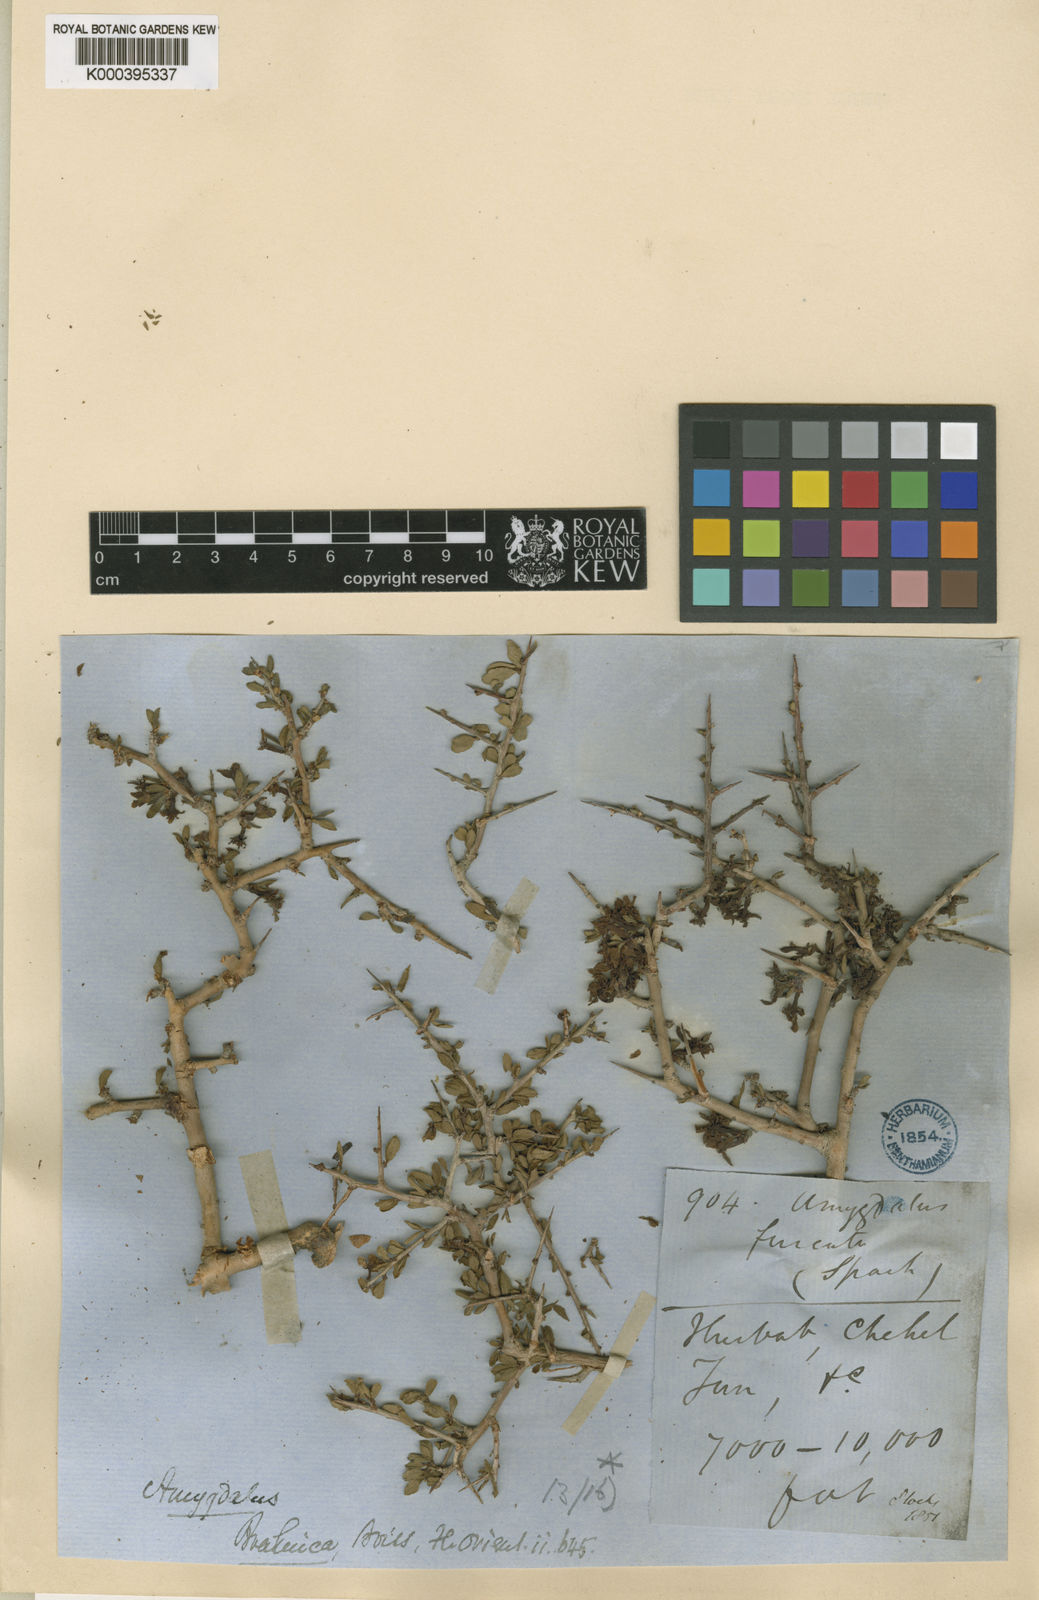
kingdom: Plantae
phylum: Tracheophyta
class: Magnoliopsida
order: Rosales
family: Rosaceae
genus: Prunus
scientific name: Prunus brahuica
